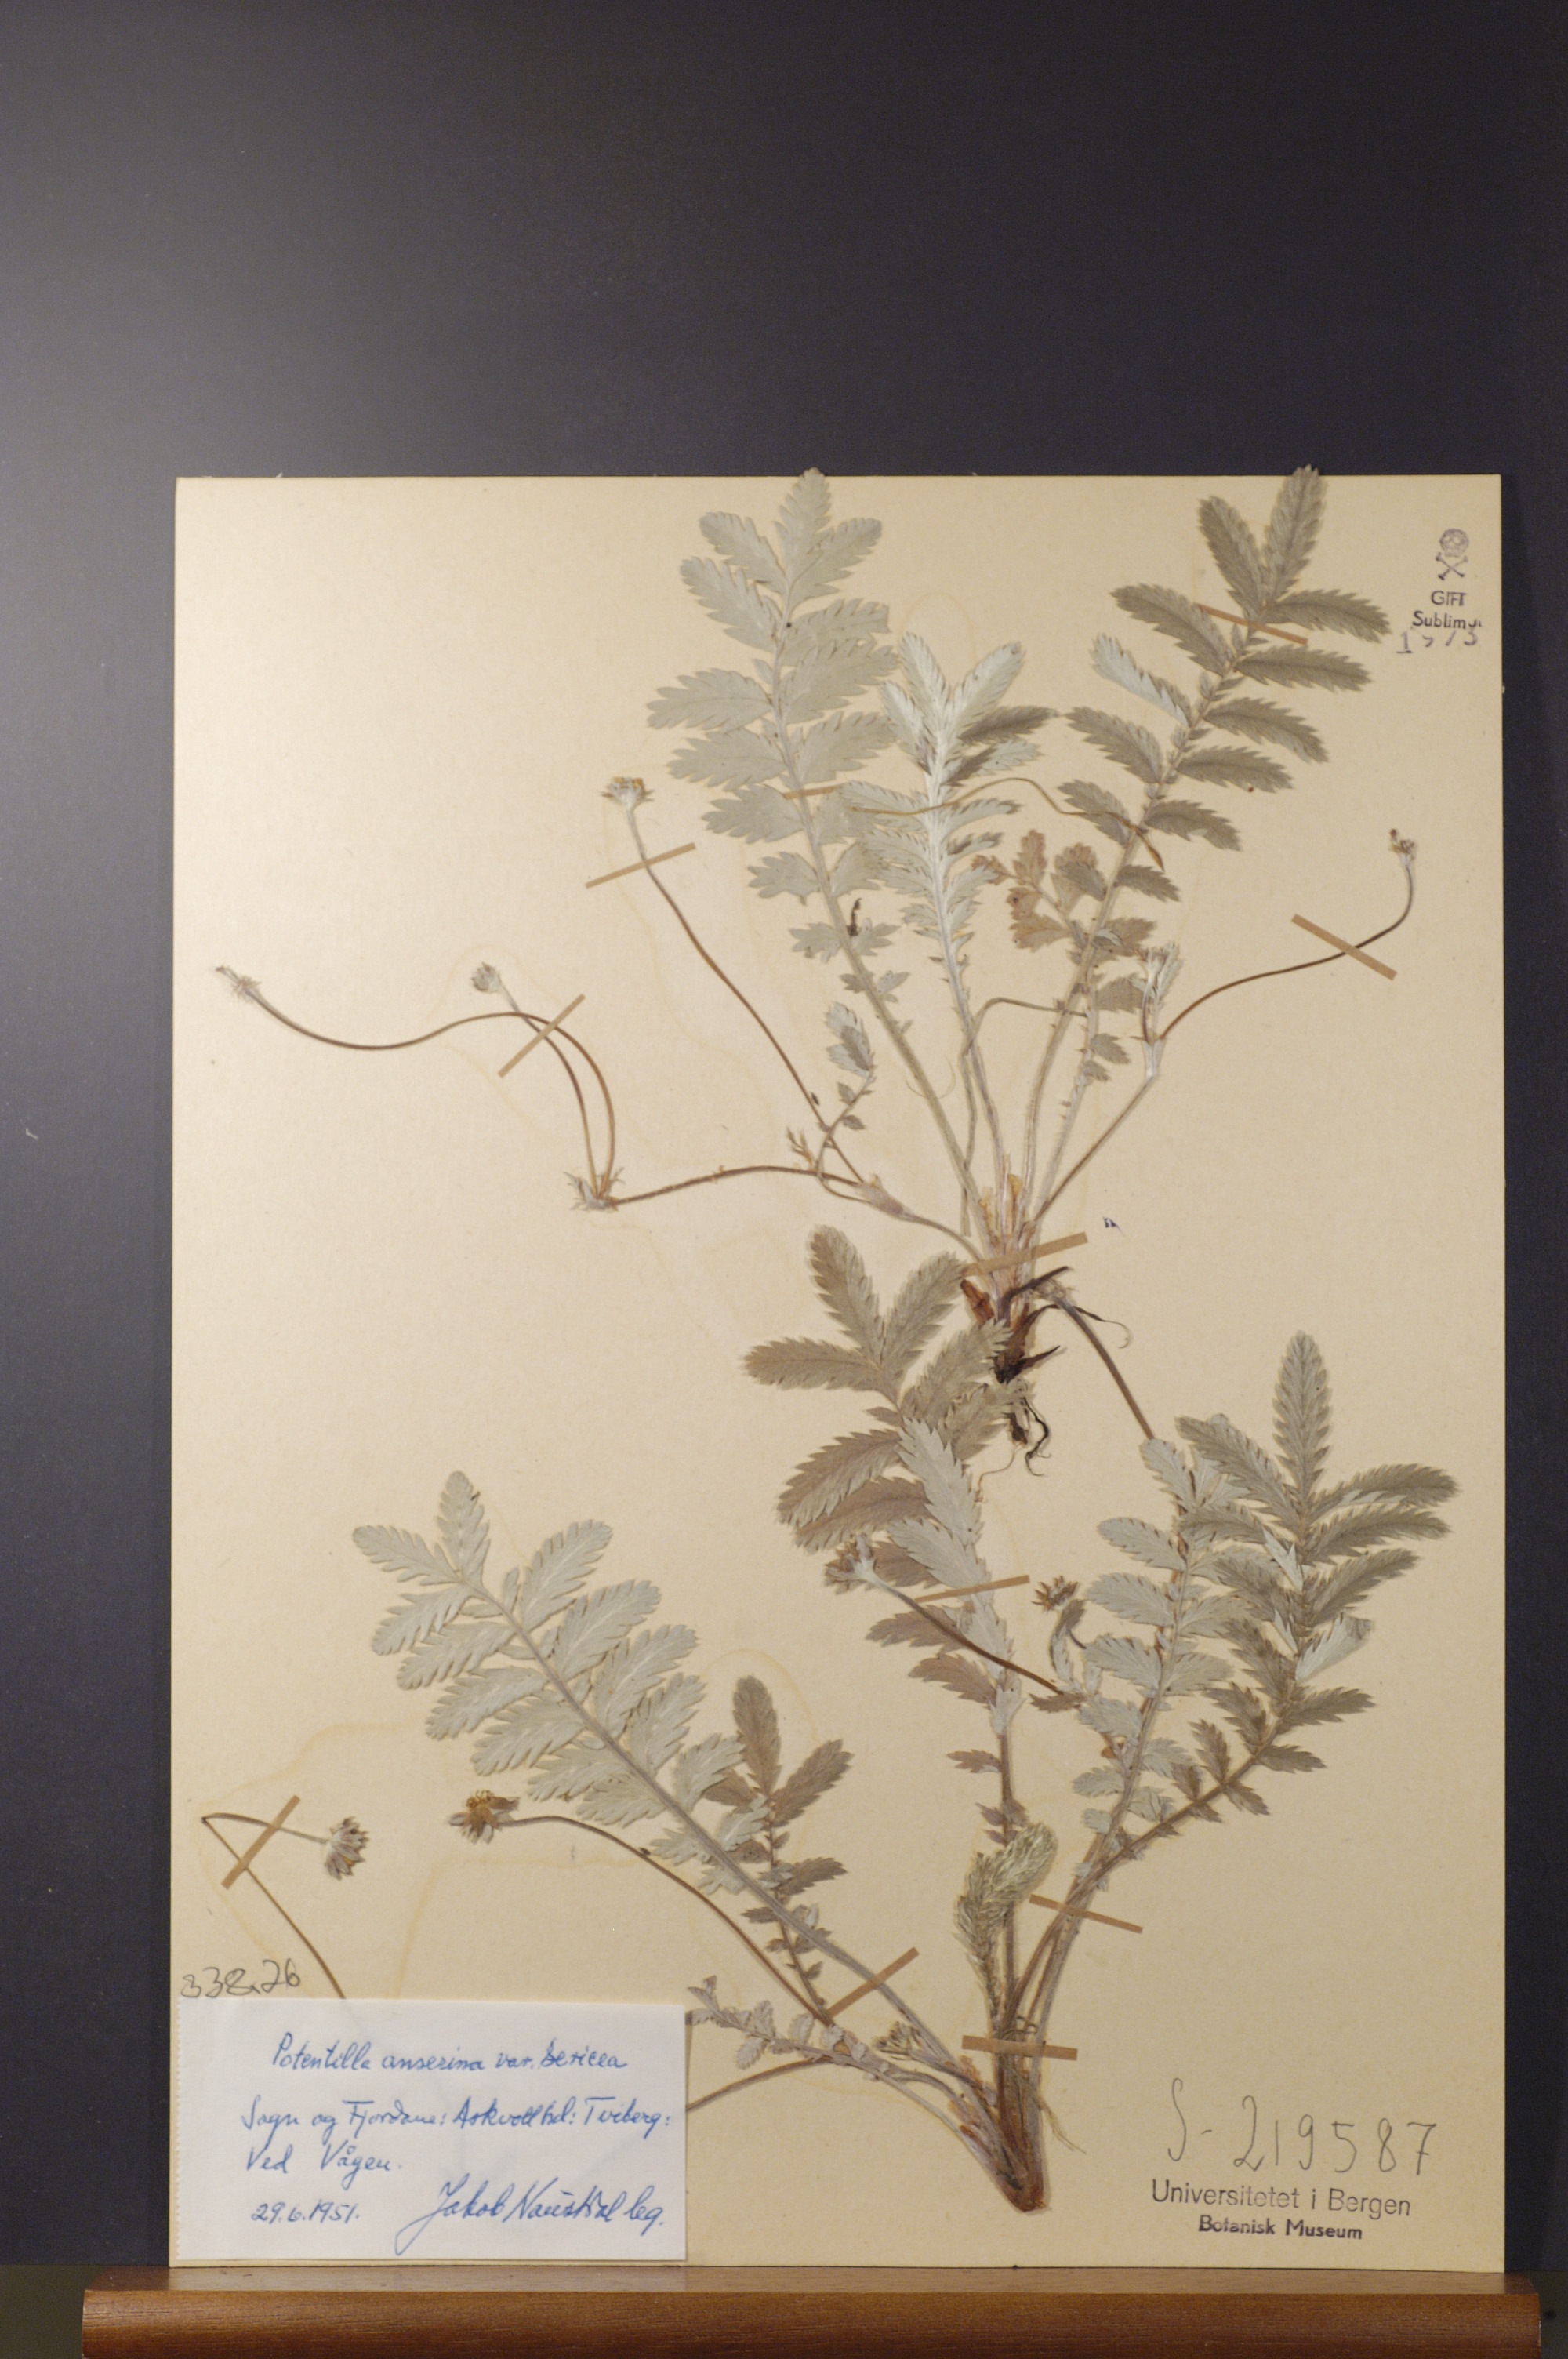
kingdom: Plantae
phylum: Tracheophyta
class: Magnoliopsida
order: Rosales
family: Rosaceae
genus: Argentina
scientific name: Argentina anserina
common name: Common silverweed
